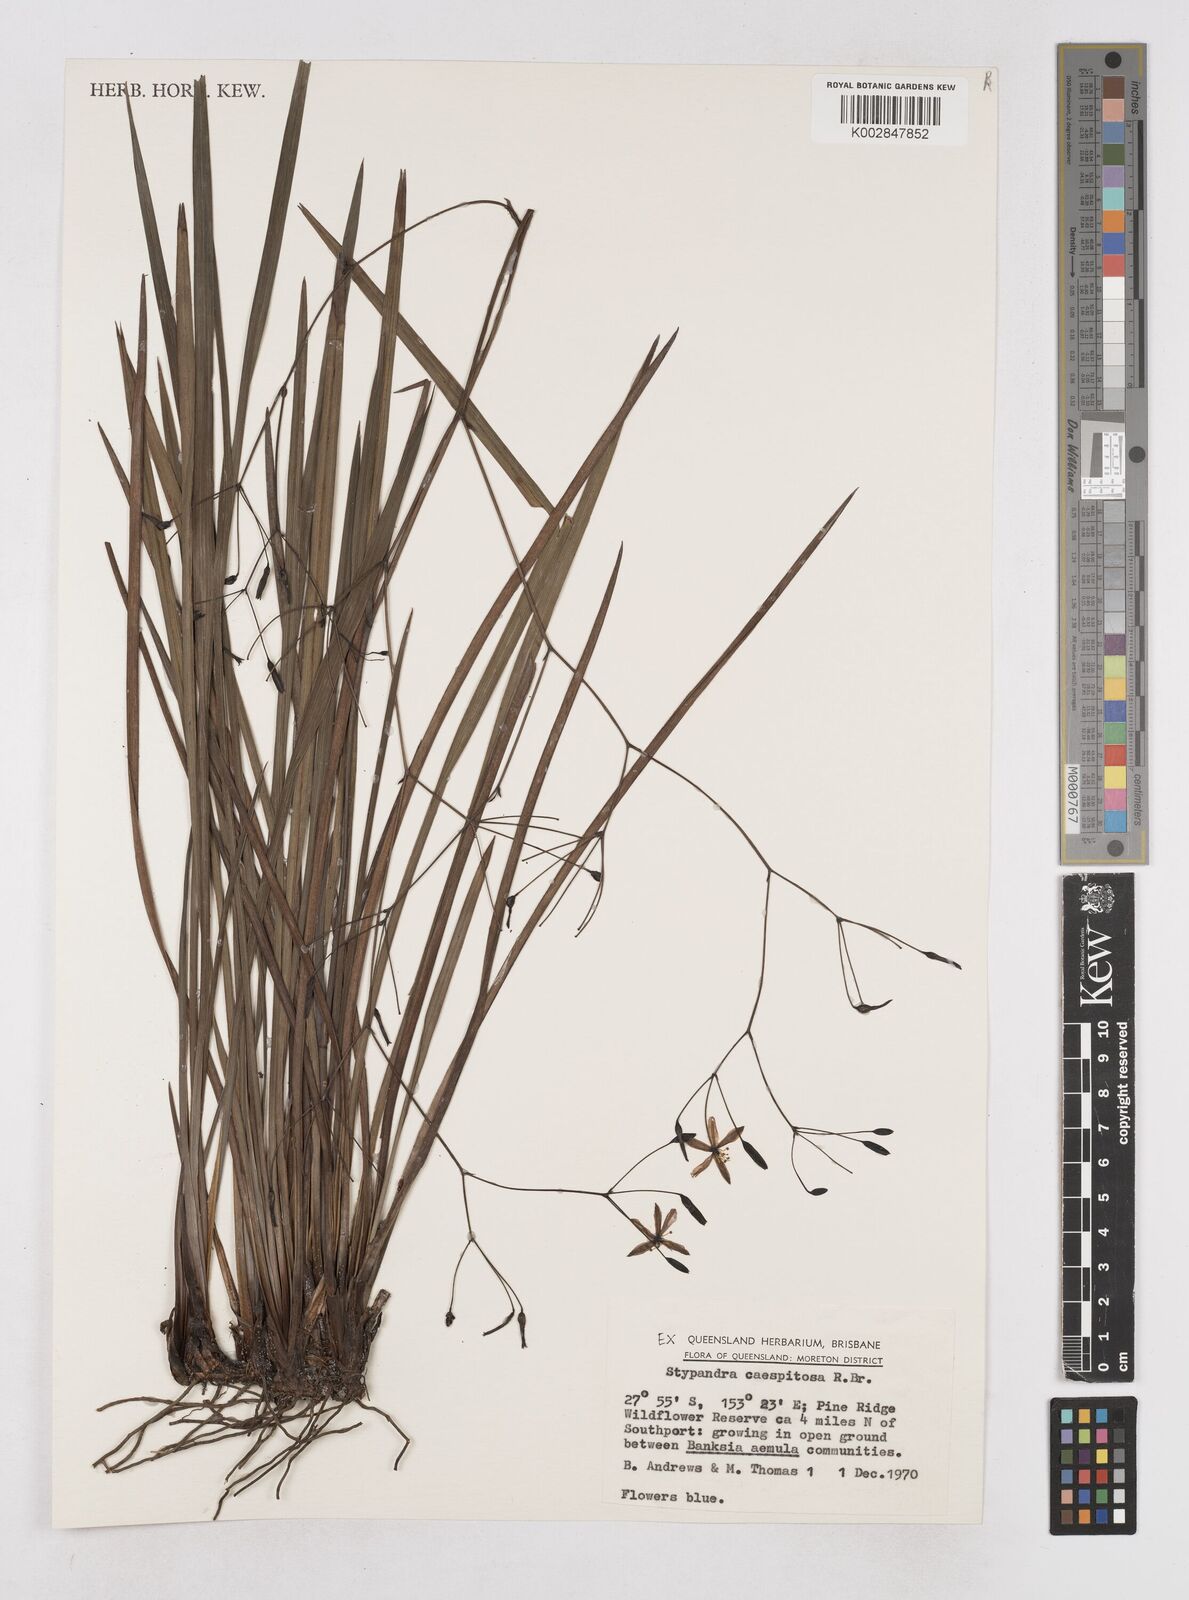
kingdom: Plantae
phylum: Tracheophyta
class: Liliopsida
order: Asparagales
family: Asphodelaceae
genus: Thelionema
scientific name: Thelionema caespitosum
